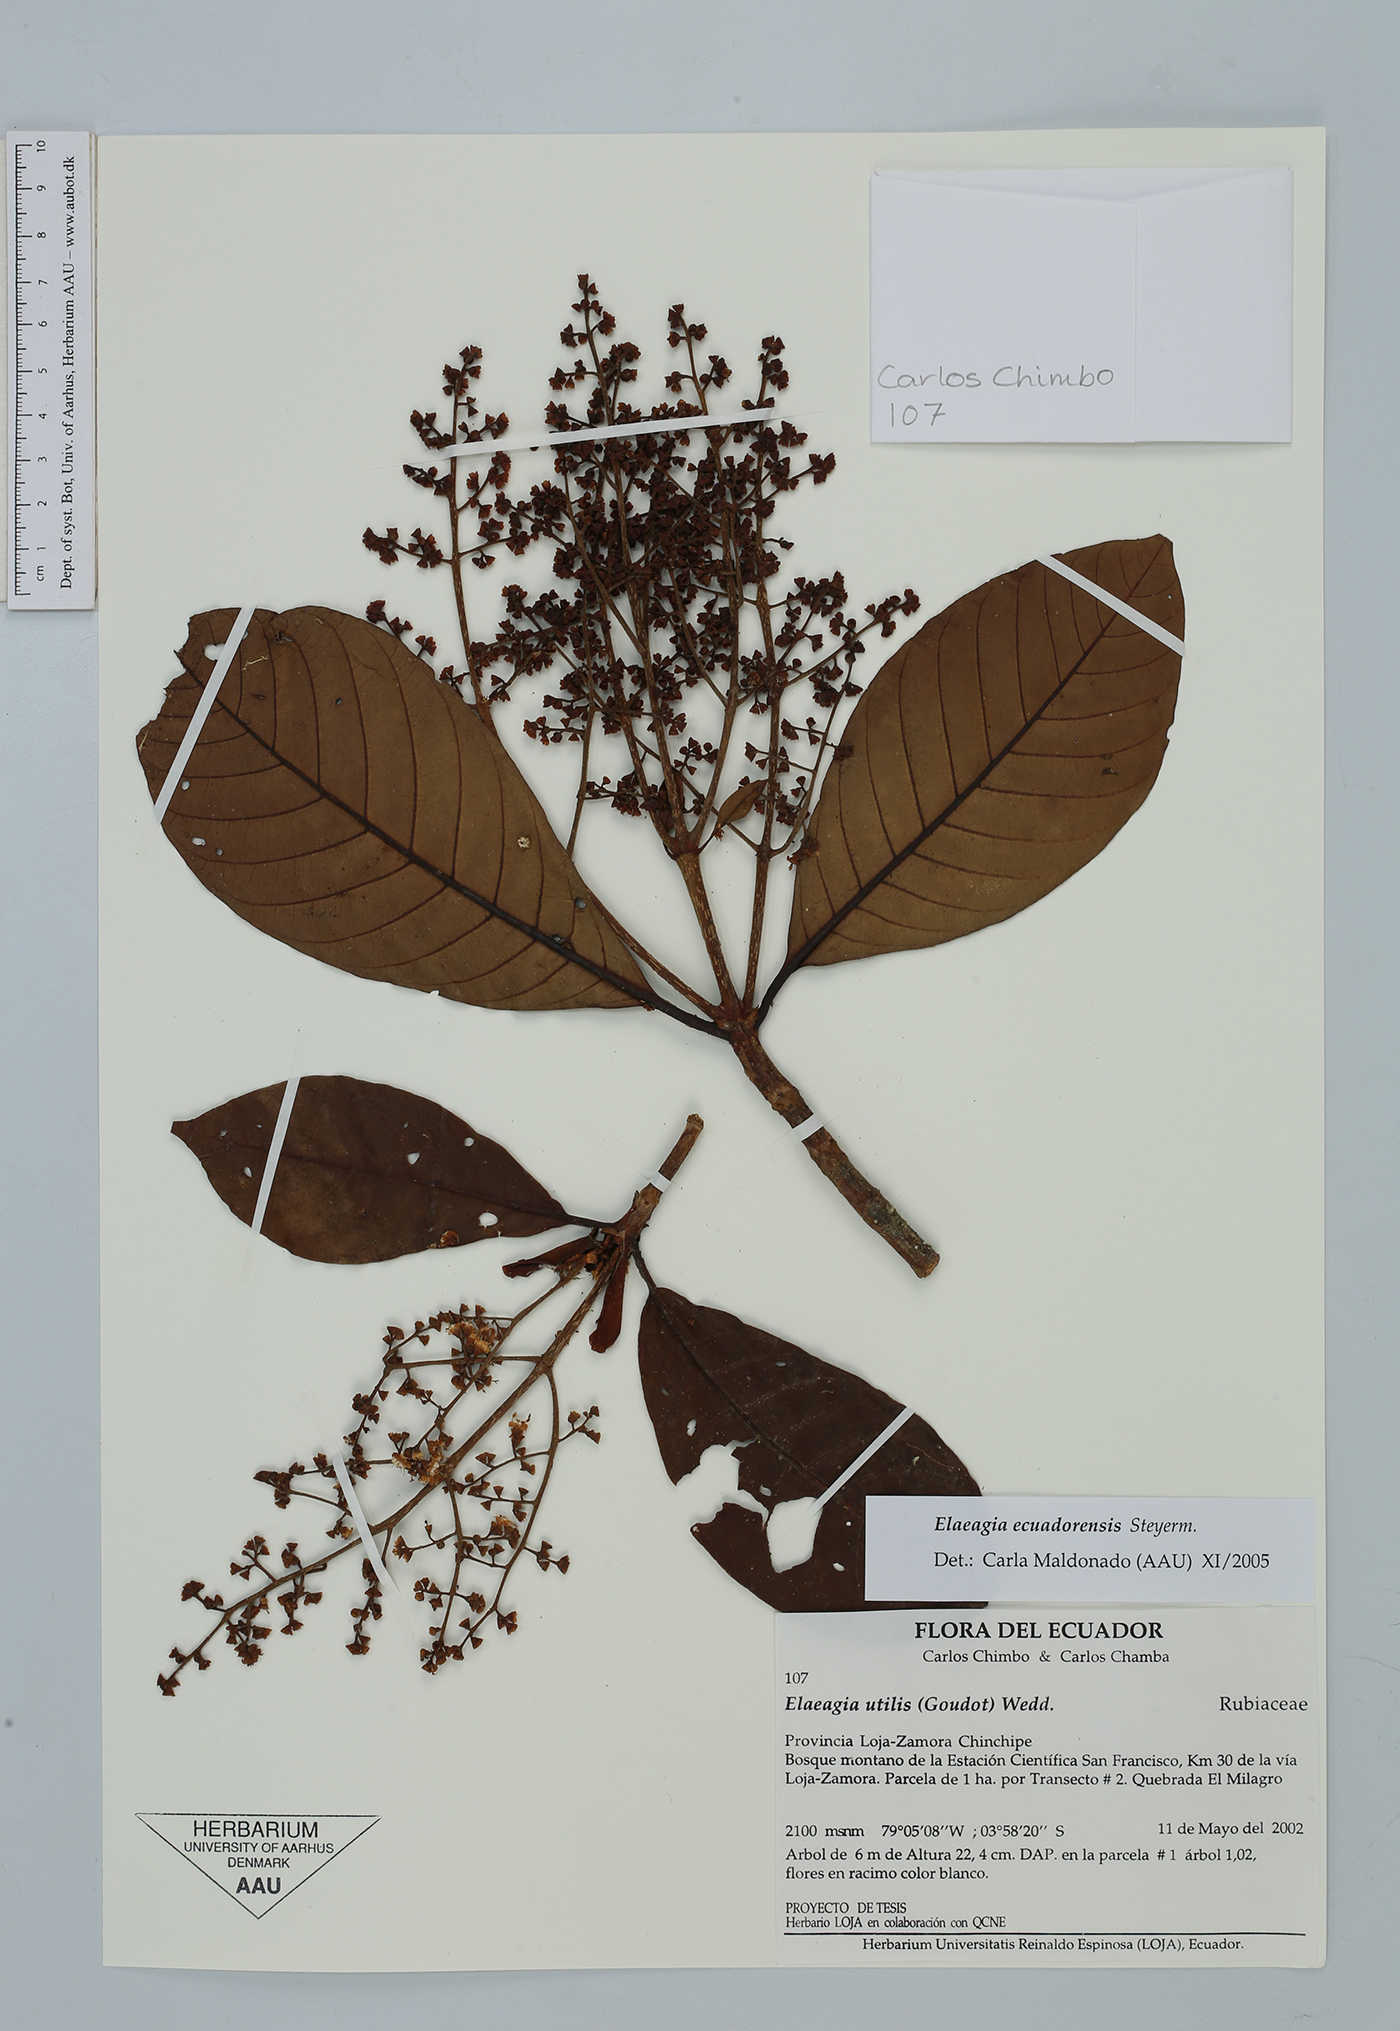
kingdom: Plantae
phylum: Tracheophyta
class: Magnoliopsida
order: Gentianales
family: Rubiaceae
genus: Elaeagia
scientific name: Elaeagia ecuadorensis
